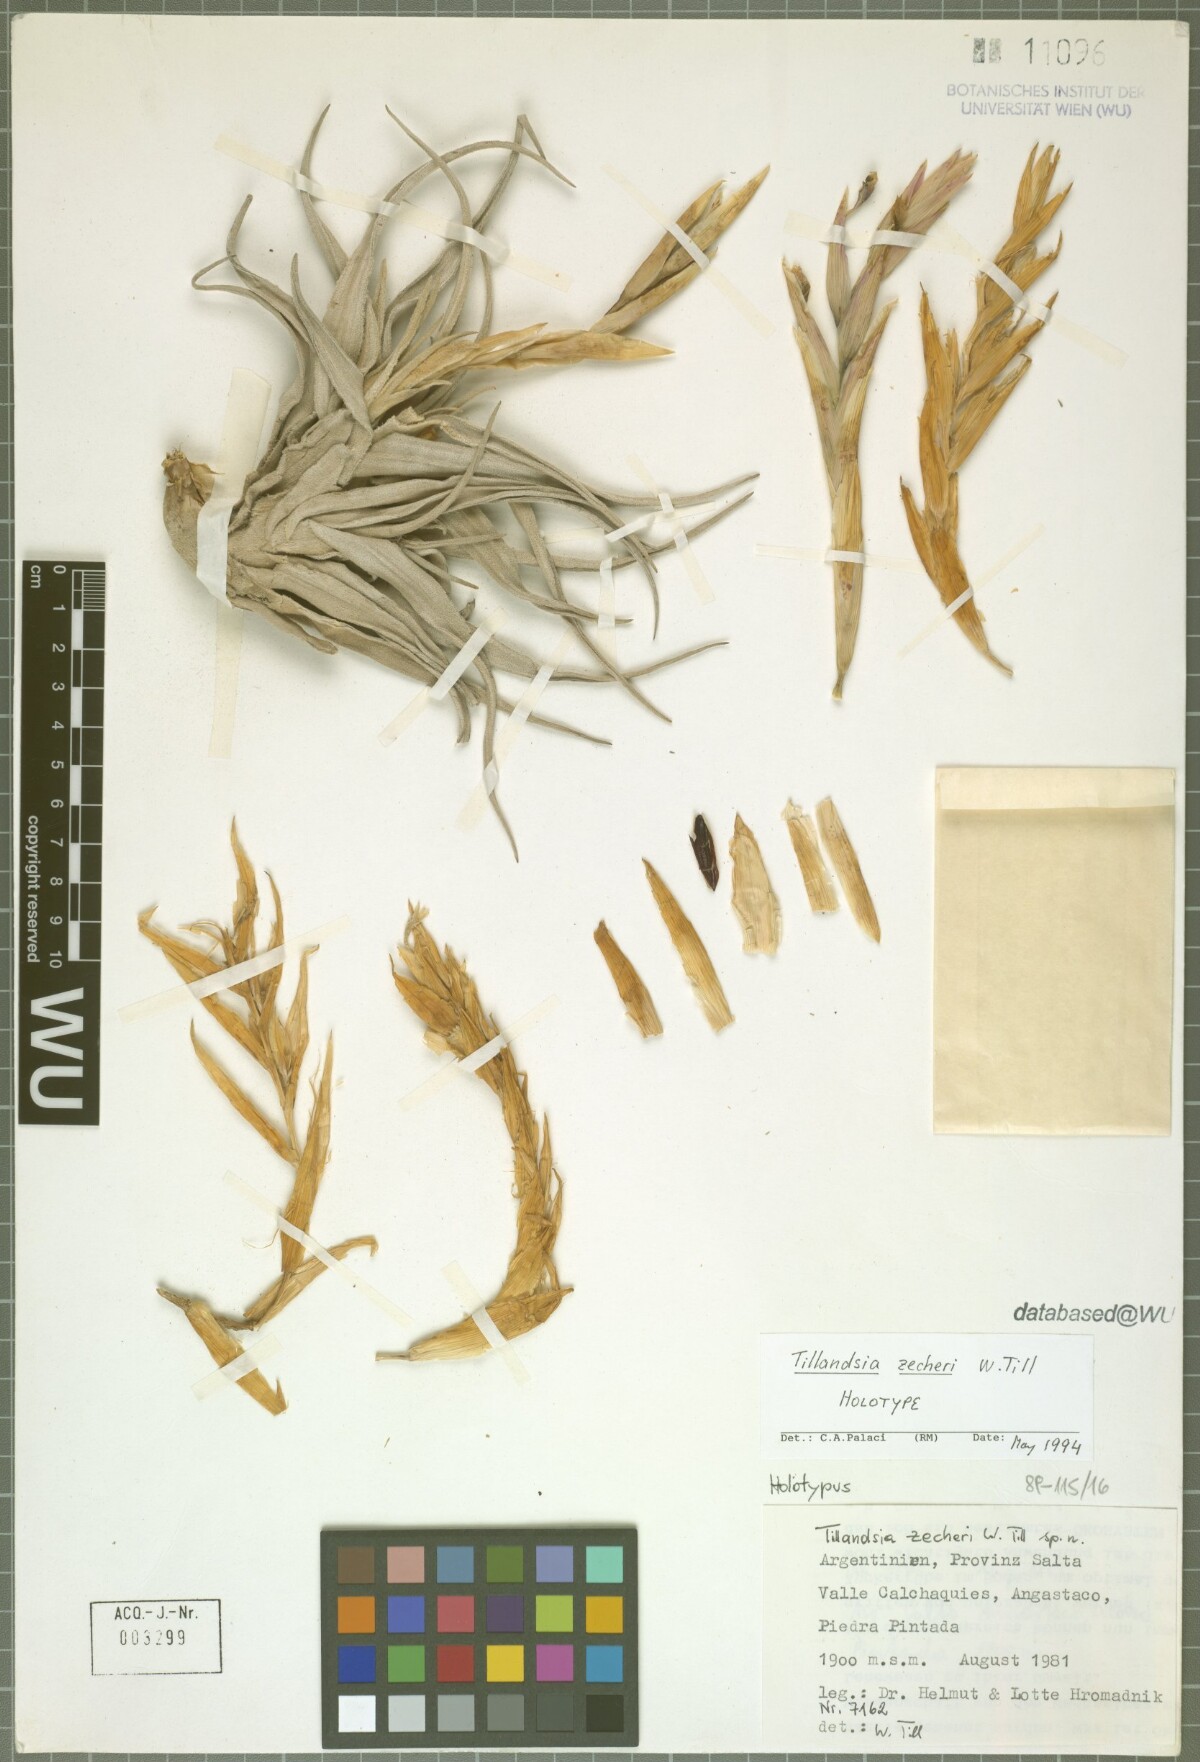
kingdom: Plantae
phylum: Tracheophyta
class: Liliopsida
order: Poales
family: Bromeliaceae
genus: Tillandsia
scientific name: Tillandsia zecheri
